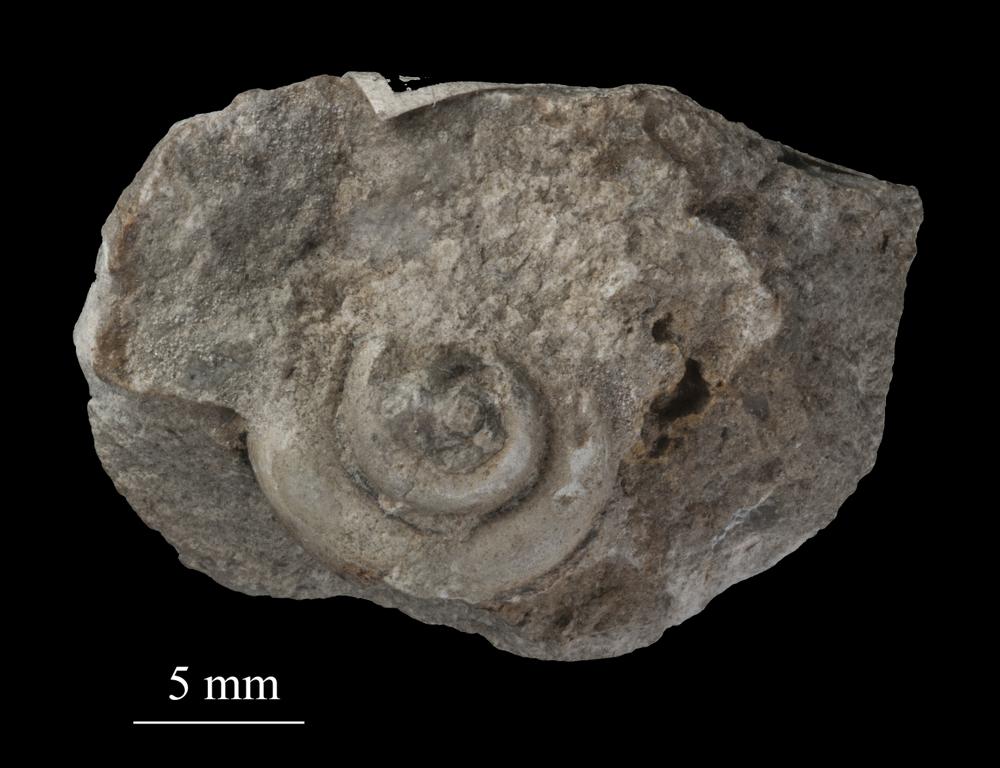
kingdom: Animalia
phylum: Mollusca
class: Gastropoda
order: Neogastropoda
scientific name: Neogastropoda
